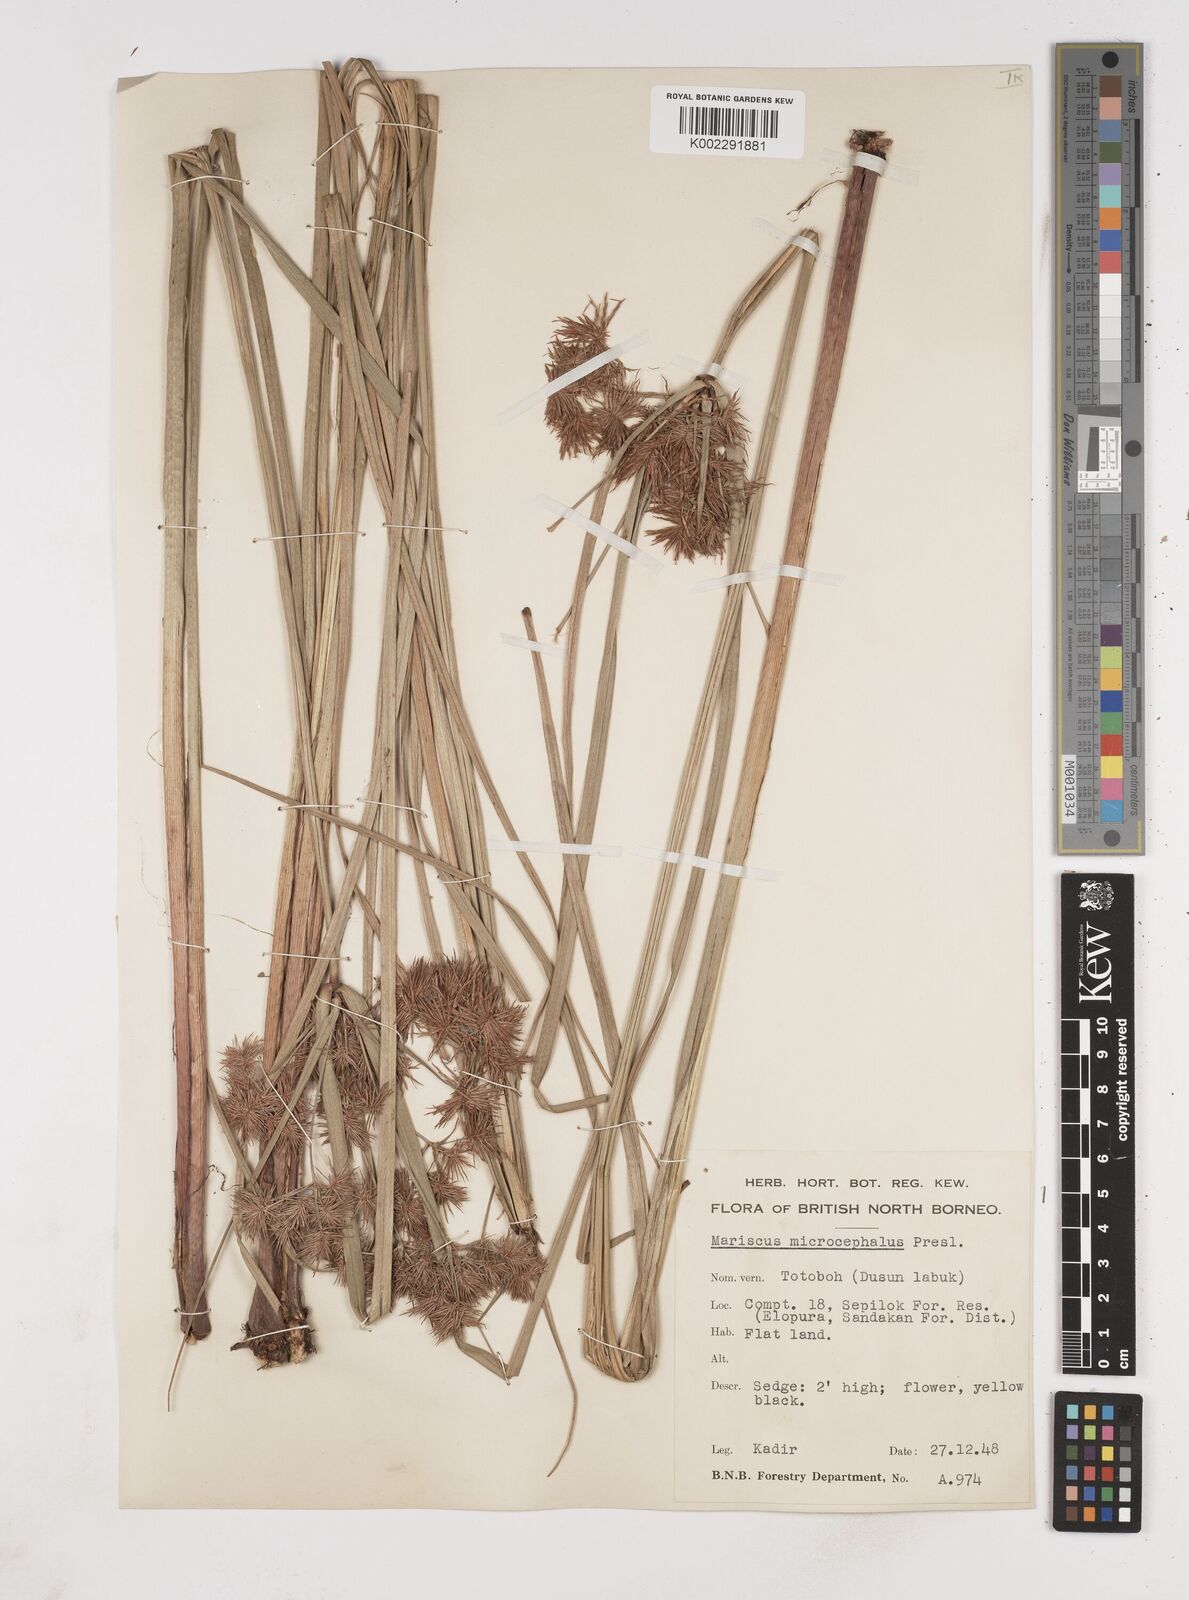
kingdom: Plantae
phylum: Tracheophyta
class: Liliopsida
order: Poales
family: Cyperaceae
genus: Cyperus
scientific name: Cyperus compactus
